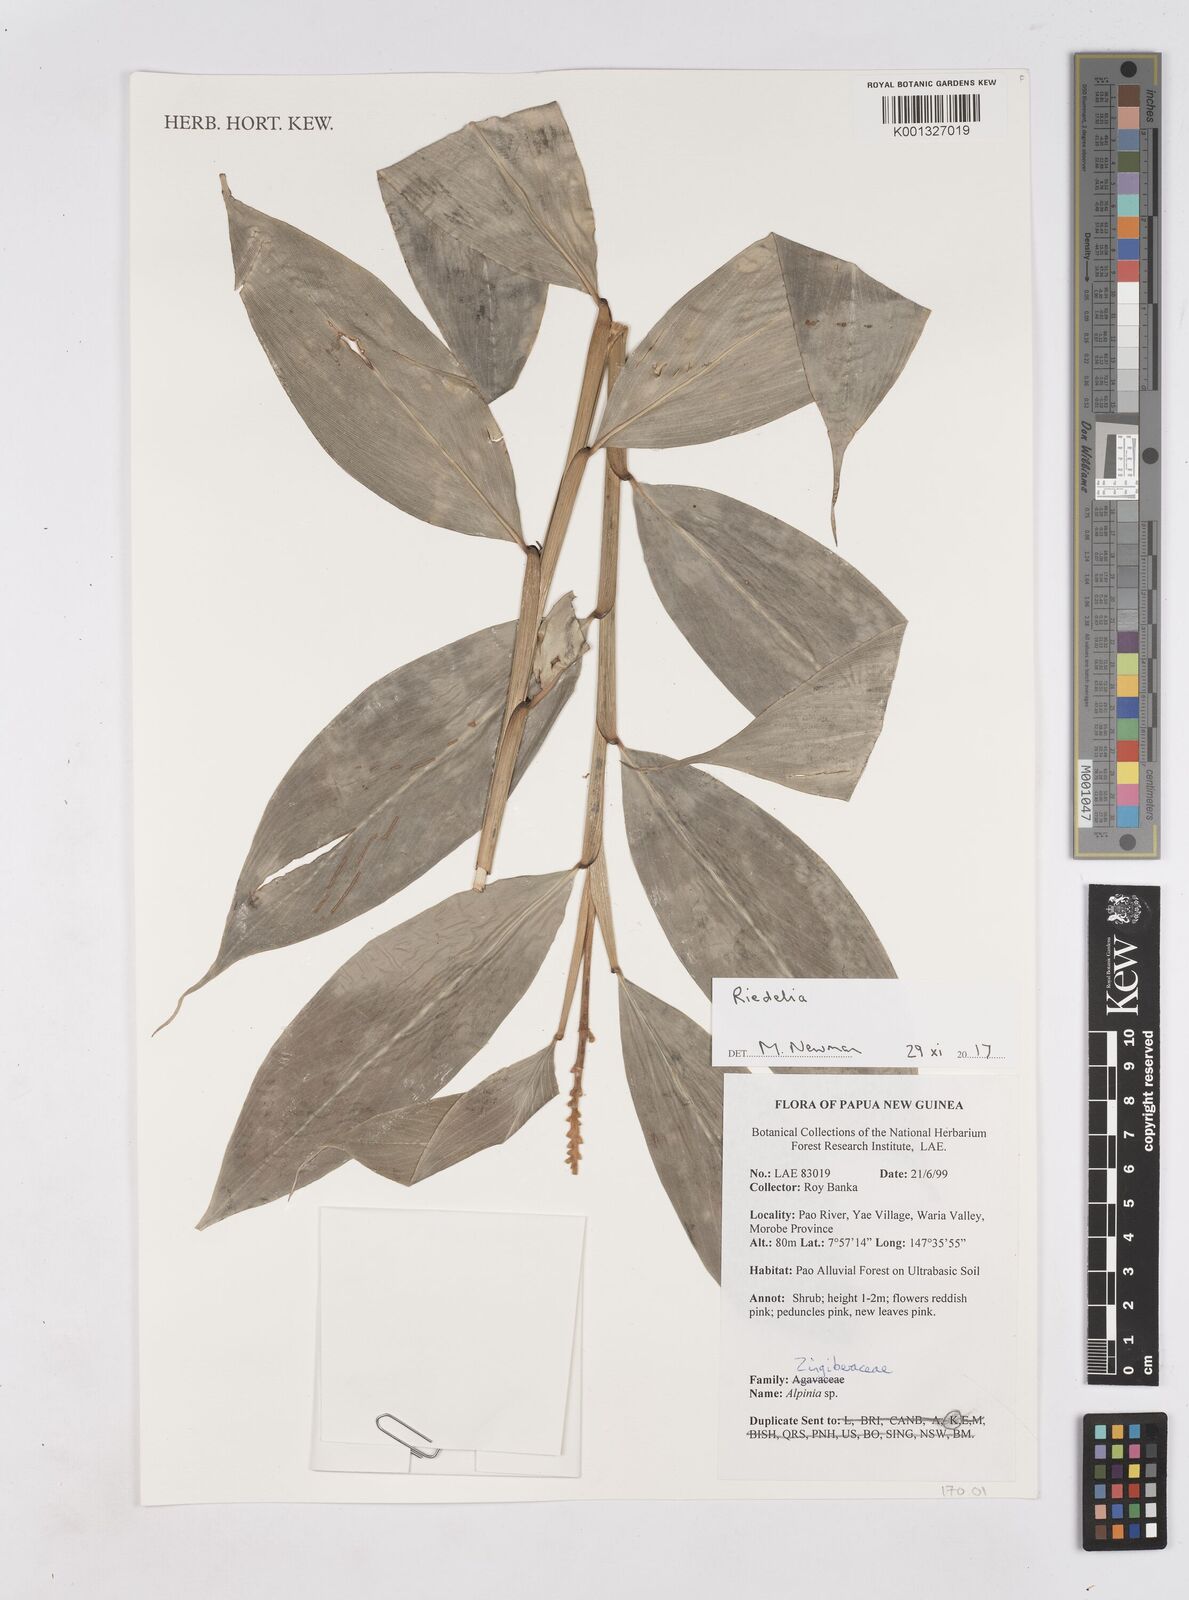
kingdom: Plantae
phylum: Tracheophyta
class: Liliopsida
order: Zingiberales
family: Zingiberaceae
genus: Riedelia
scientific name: Riedelia
